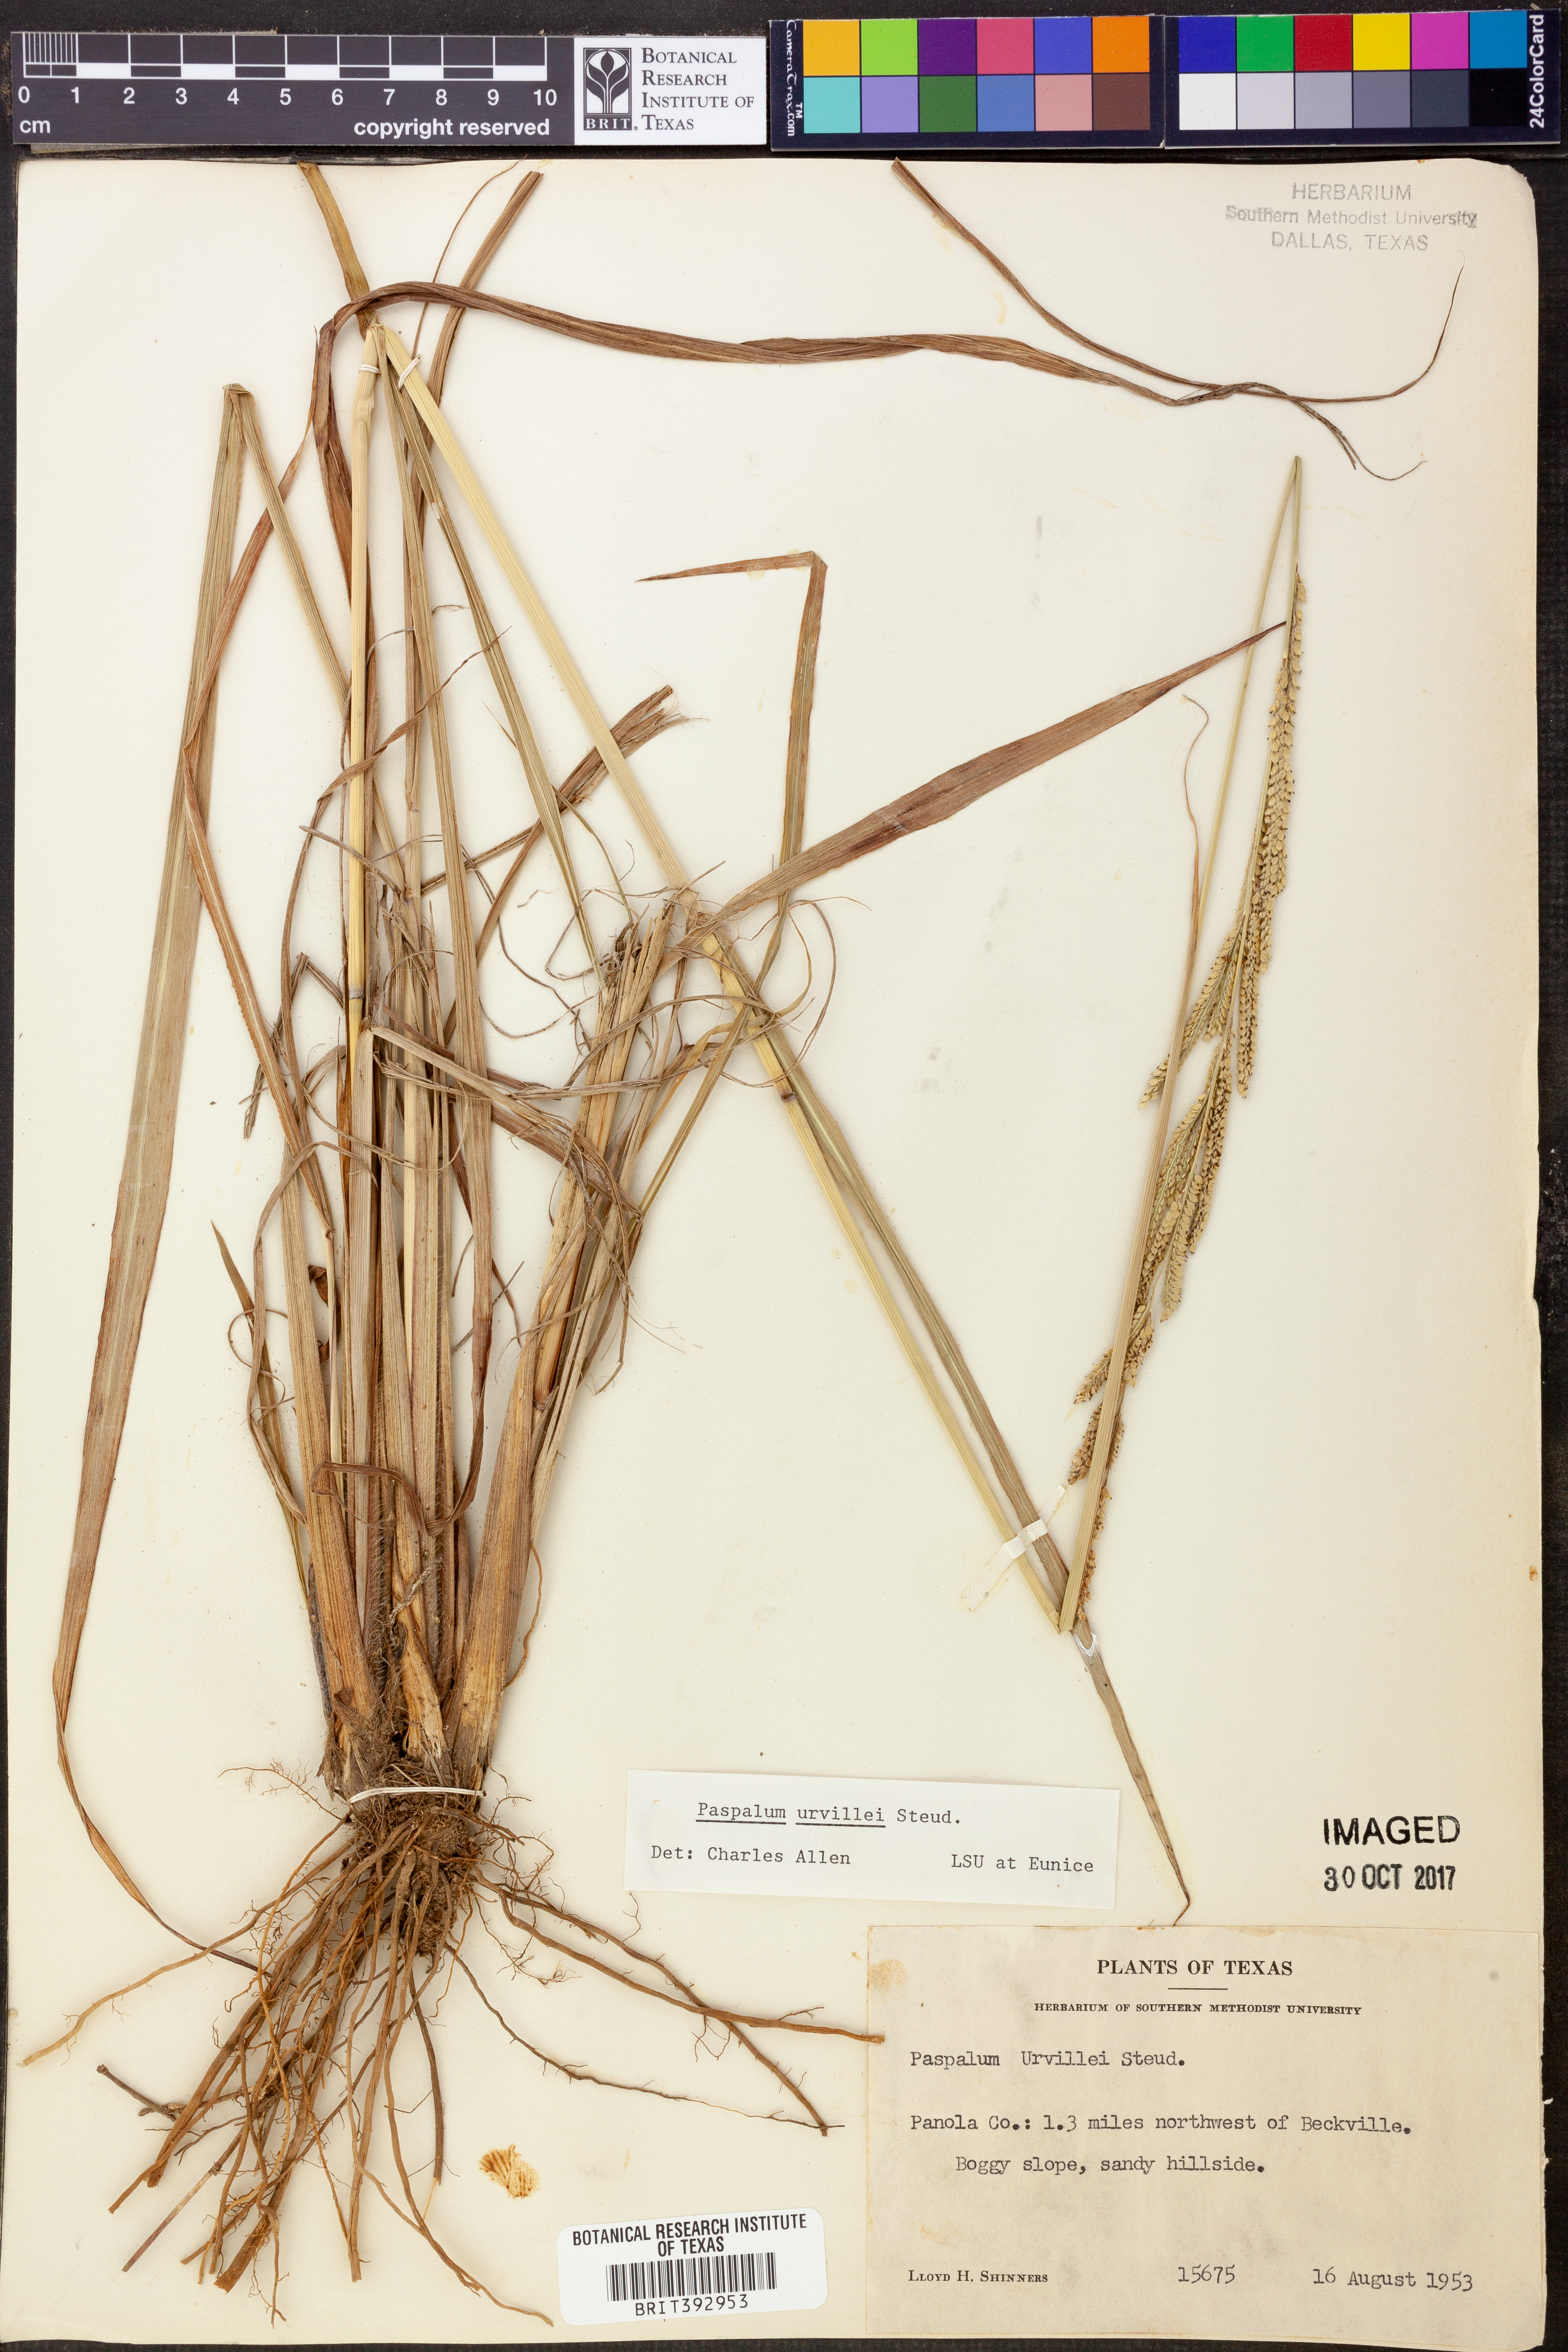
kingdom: Plantae
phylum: Tracheophyta
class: Liliopsida
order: Poales
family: Poaceae
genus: Paspalum
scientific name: Paspalum urvillei
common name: Vasey's grass
